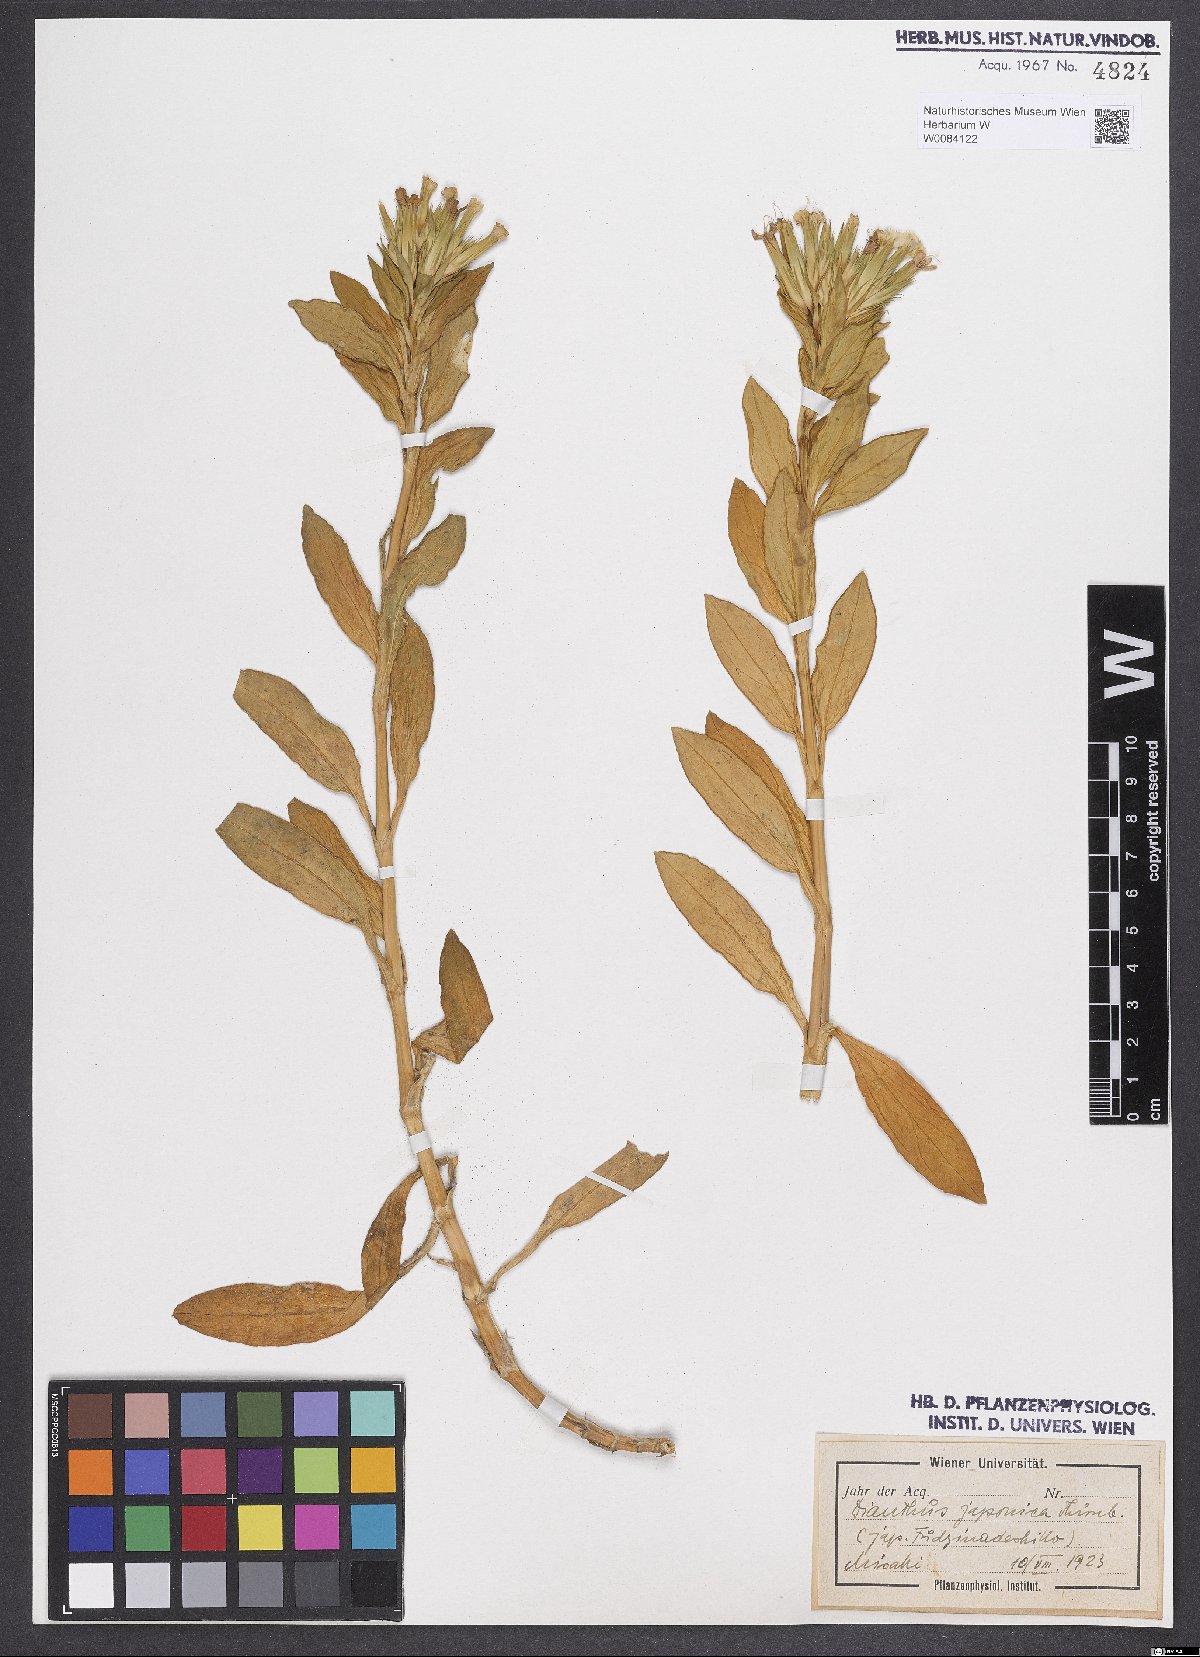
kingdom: Plantae
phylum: Tracheophyta
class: Magnoliopsida
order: Caryophyllales
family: Caryophyllaceae
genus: Dianthus
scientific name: Dianthus japonicus
